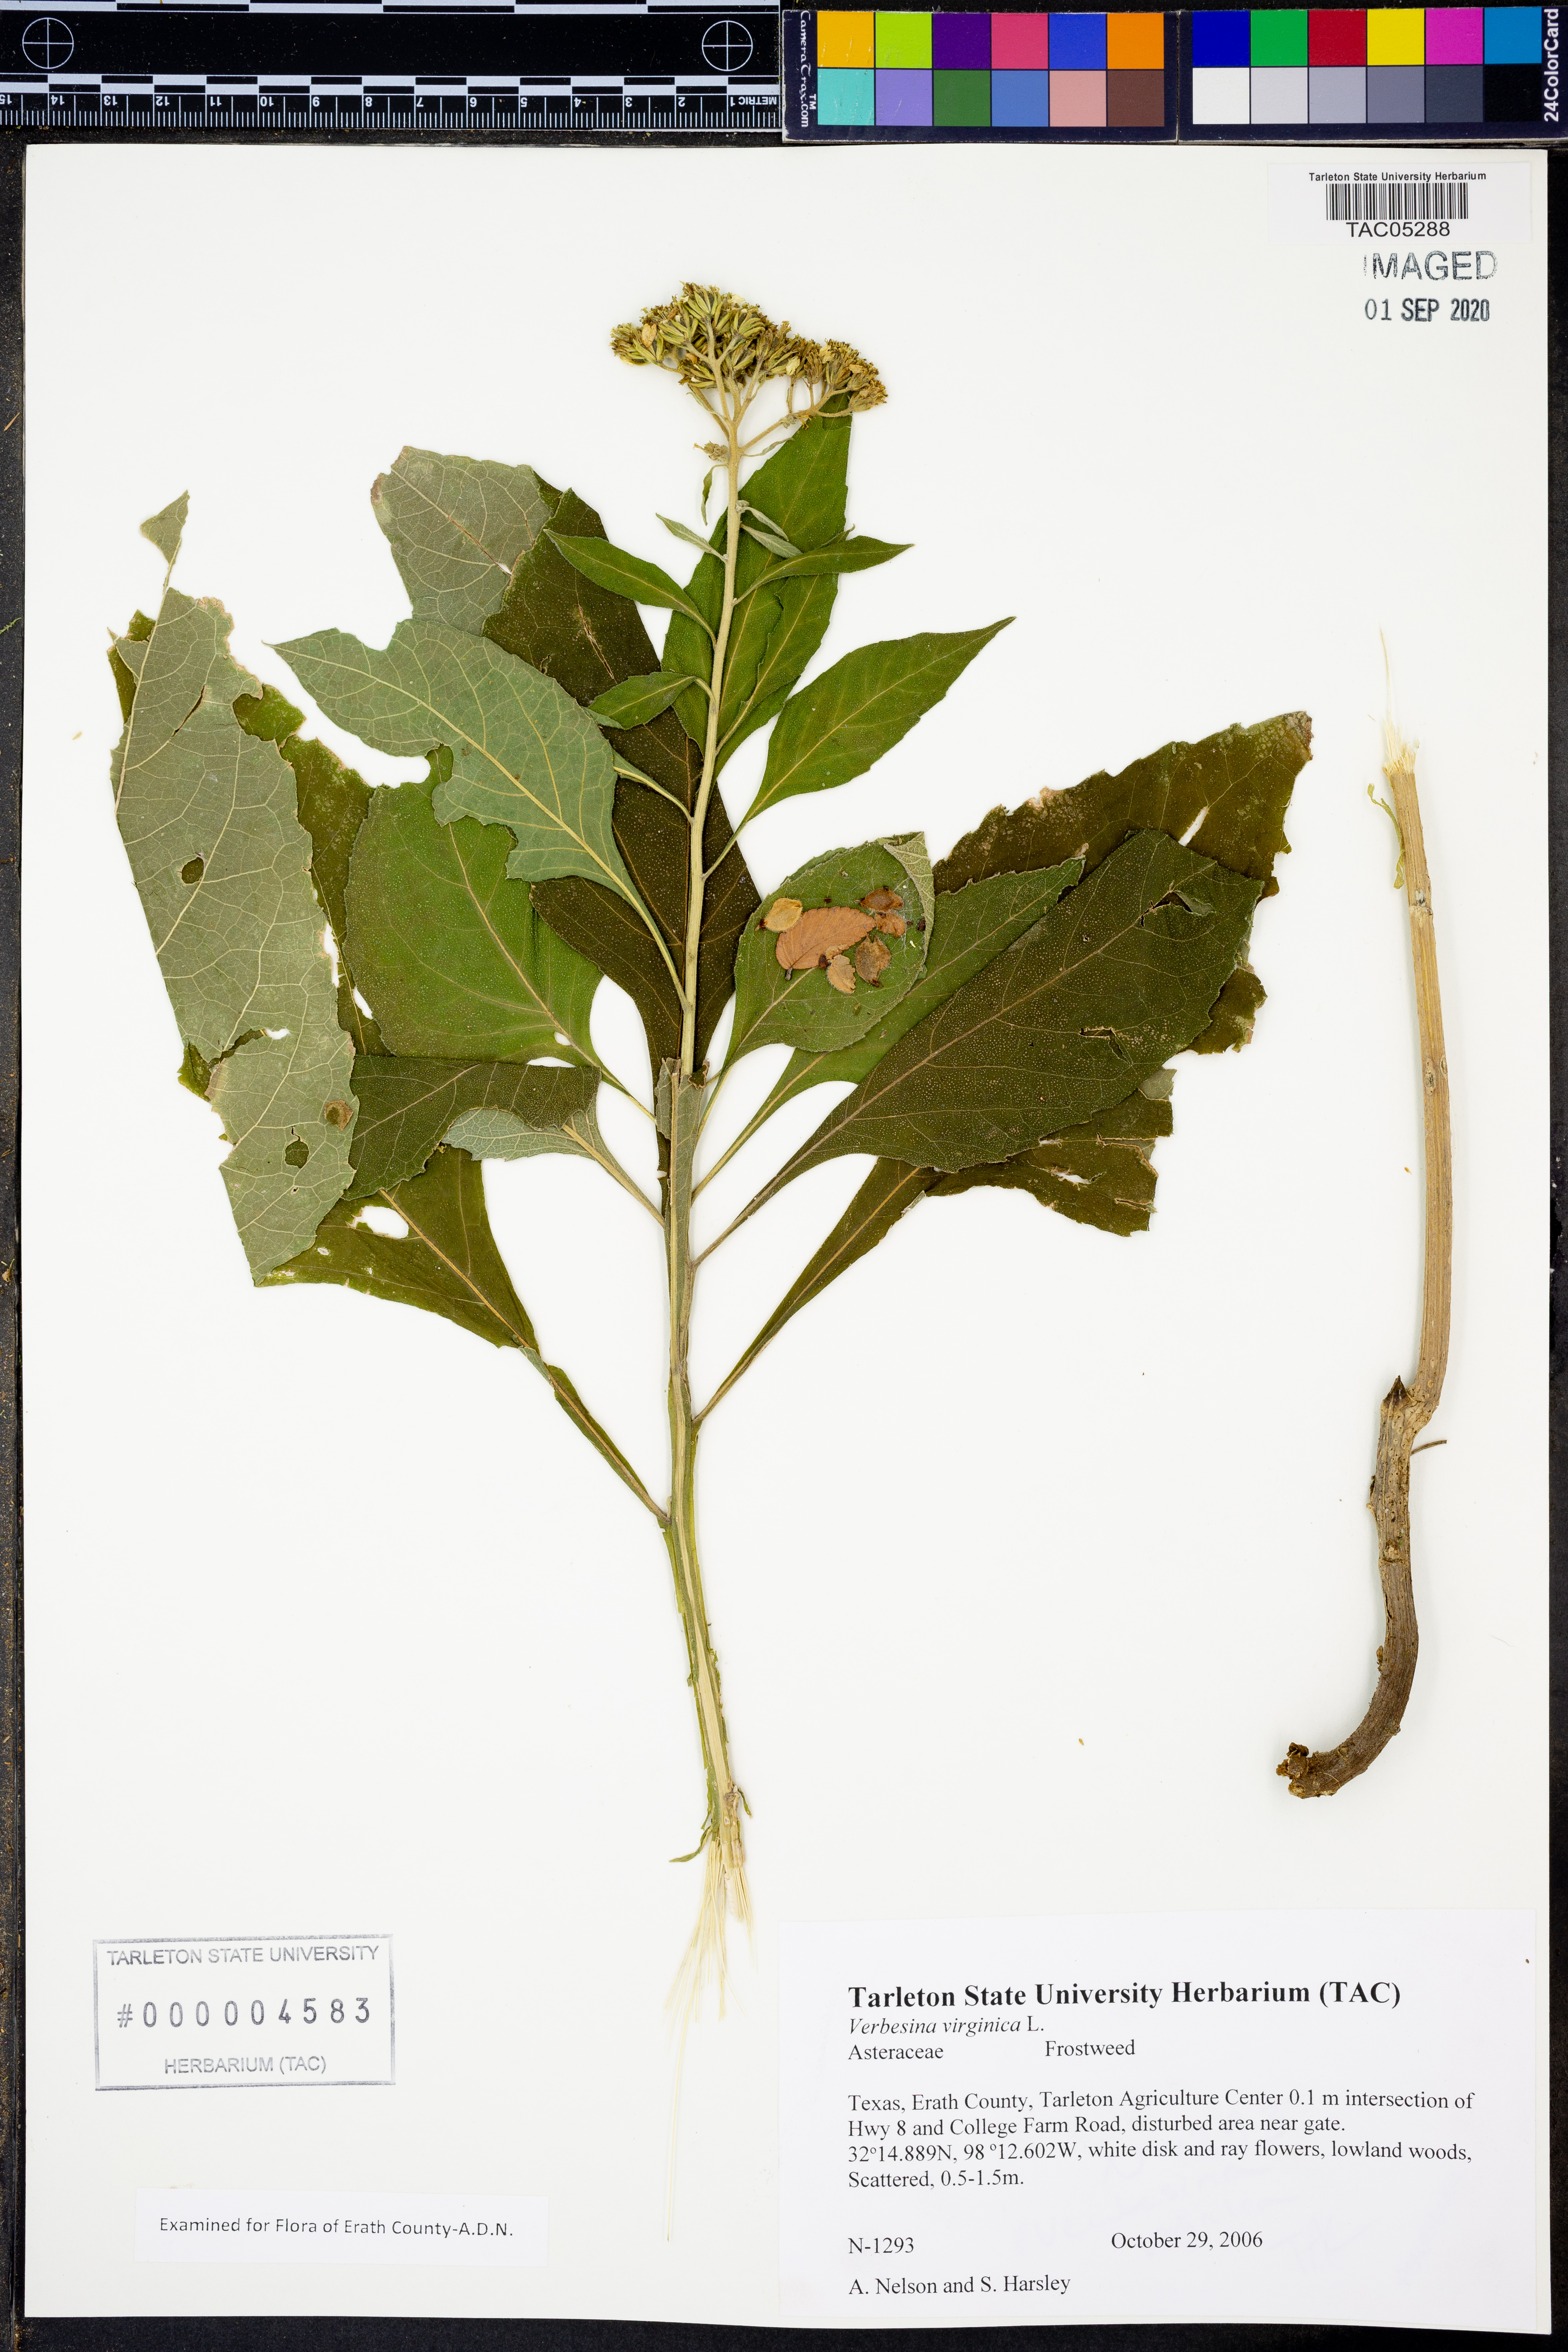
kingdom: Plantae
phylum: Tracheophyta
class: Magnoliopsida
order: Asterales
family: Asteraceae
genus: Verbesina
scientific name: Verbesina virginica
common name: Frostweed
